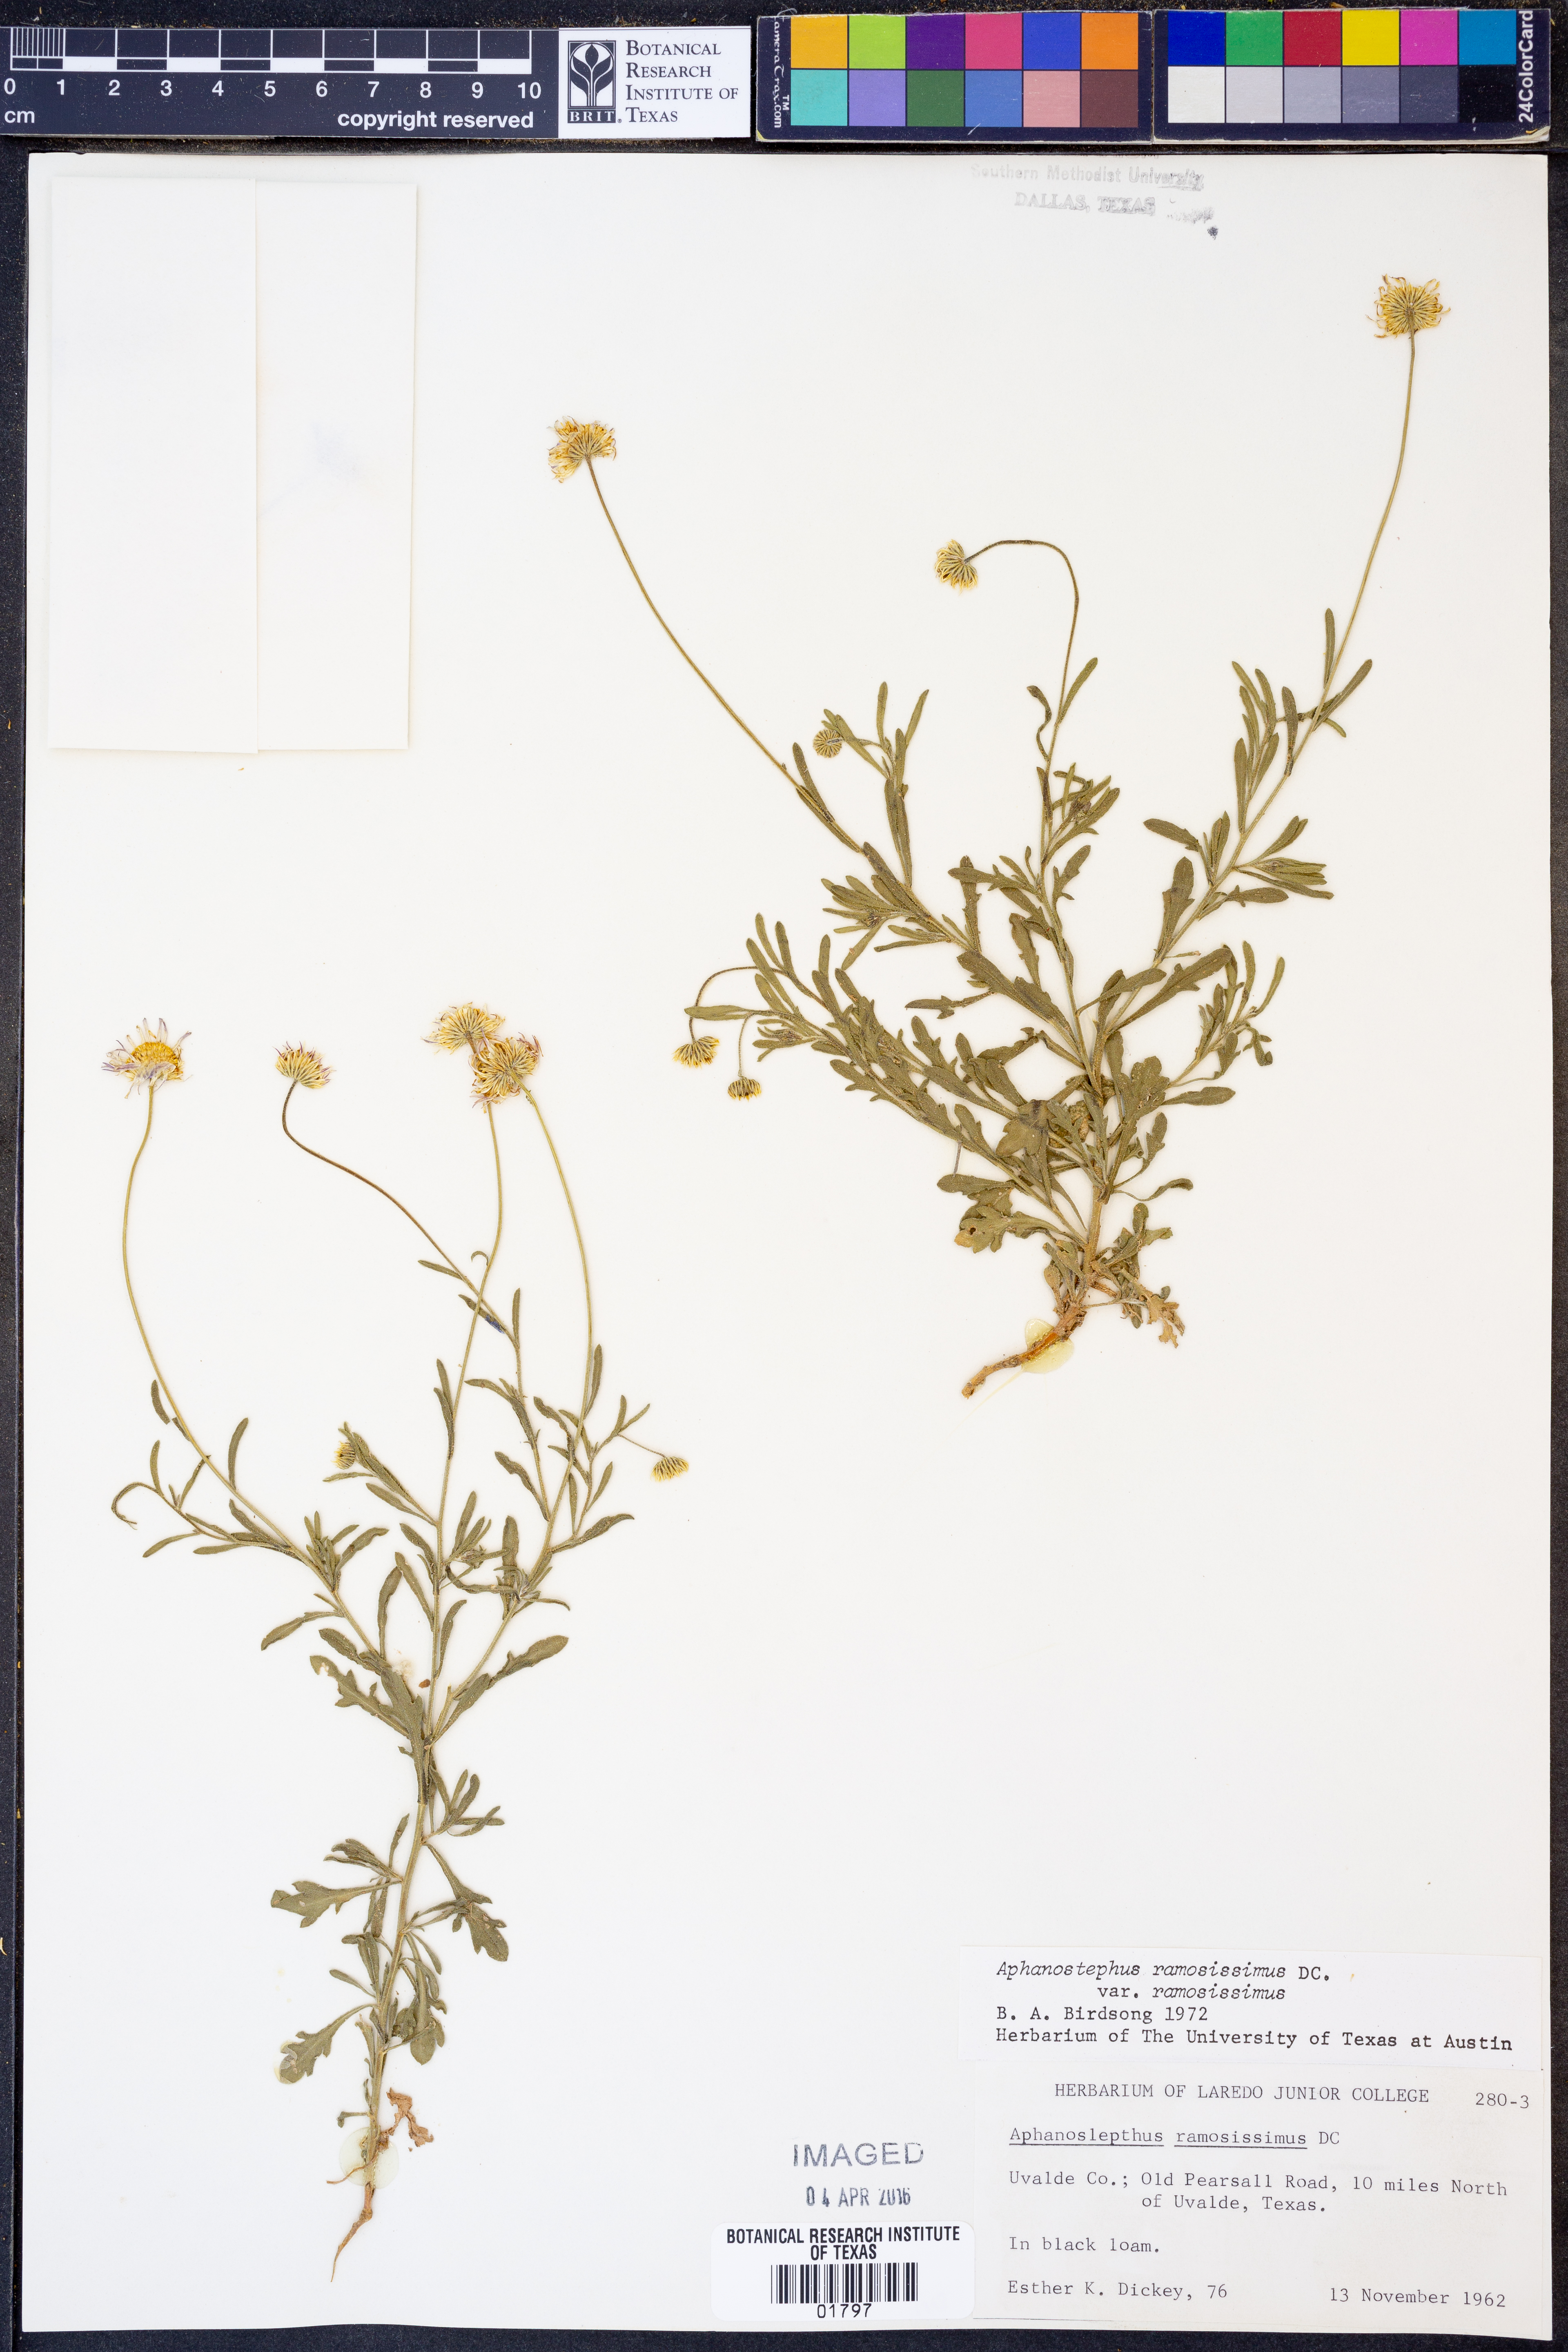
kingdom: Plantae
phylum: Tracheophyta
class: Magnoliopsida
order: Asterales
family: Asteraceae
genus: Aphanostephus
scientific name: Aphanostephus ramosissimus
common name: Plains lazy daisy
